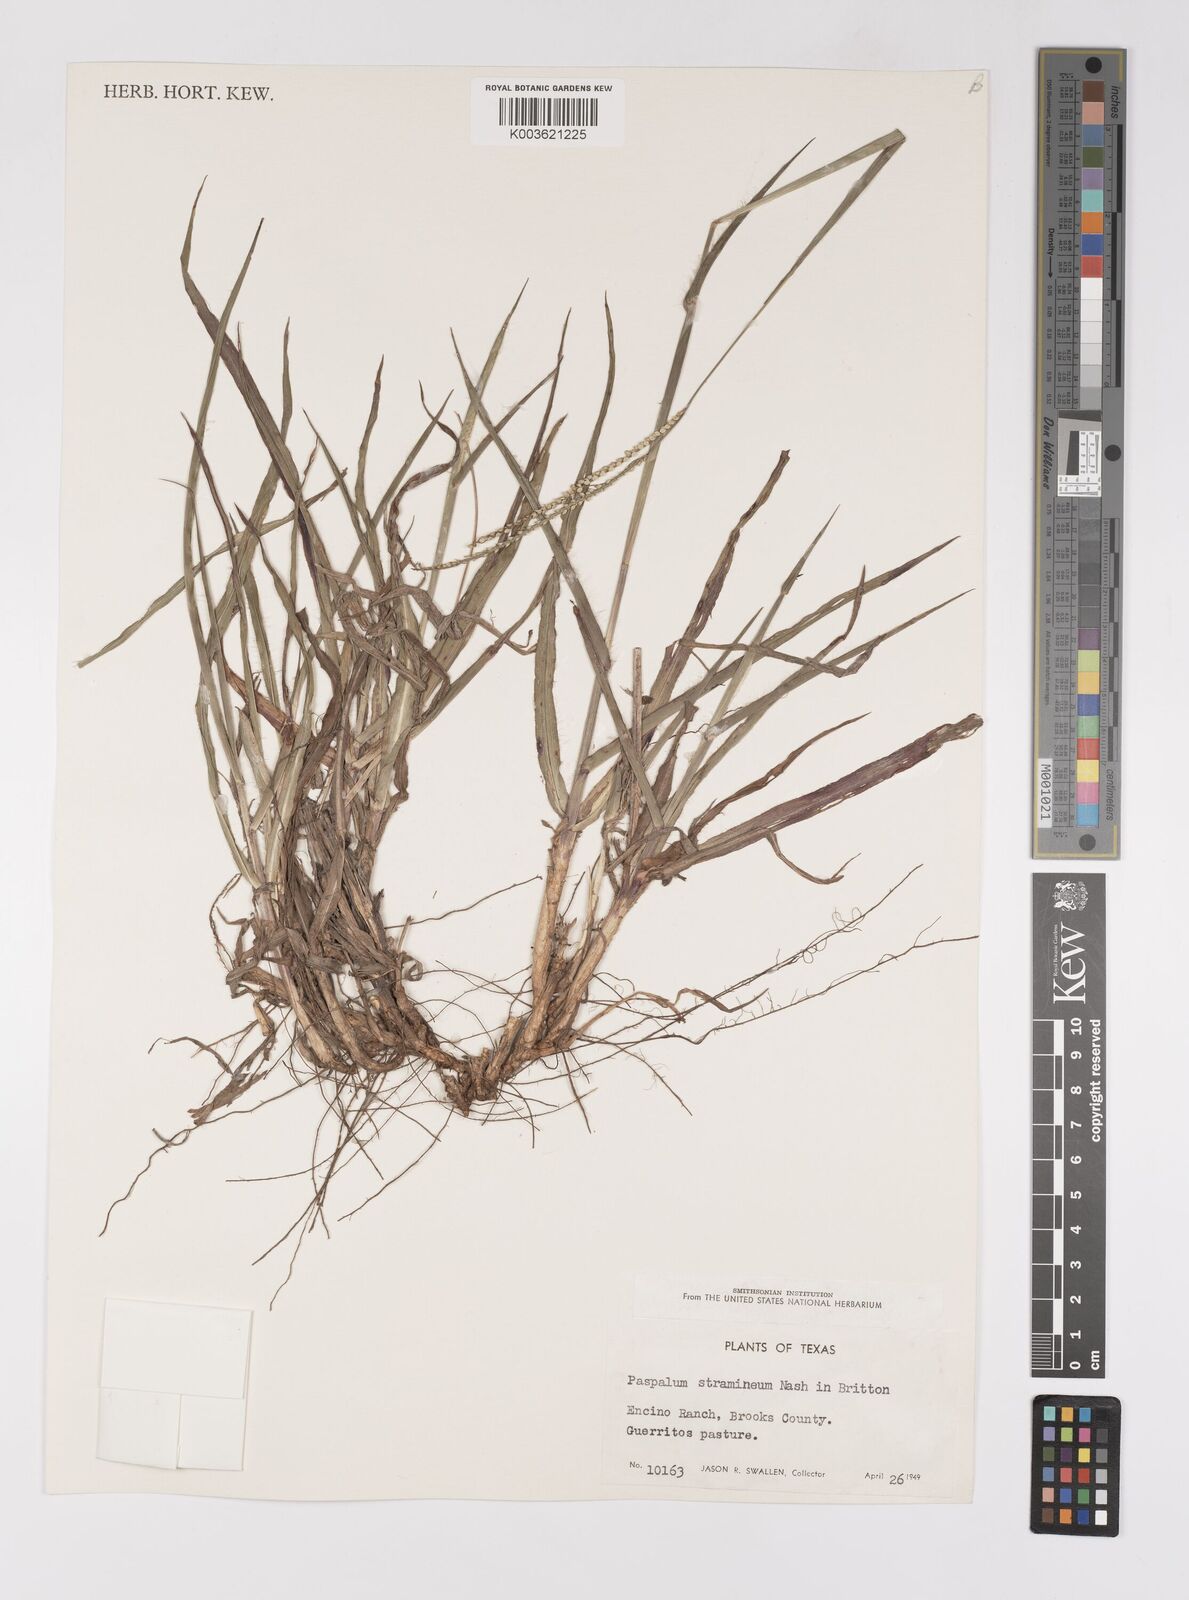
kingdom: Plantae
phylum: Tracheophyta
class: Liliopsida
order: Poales
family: Poaceae
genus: Paspalum
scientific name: Paspalum setaceum
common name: Slender paspalum
